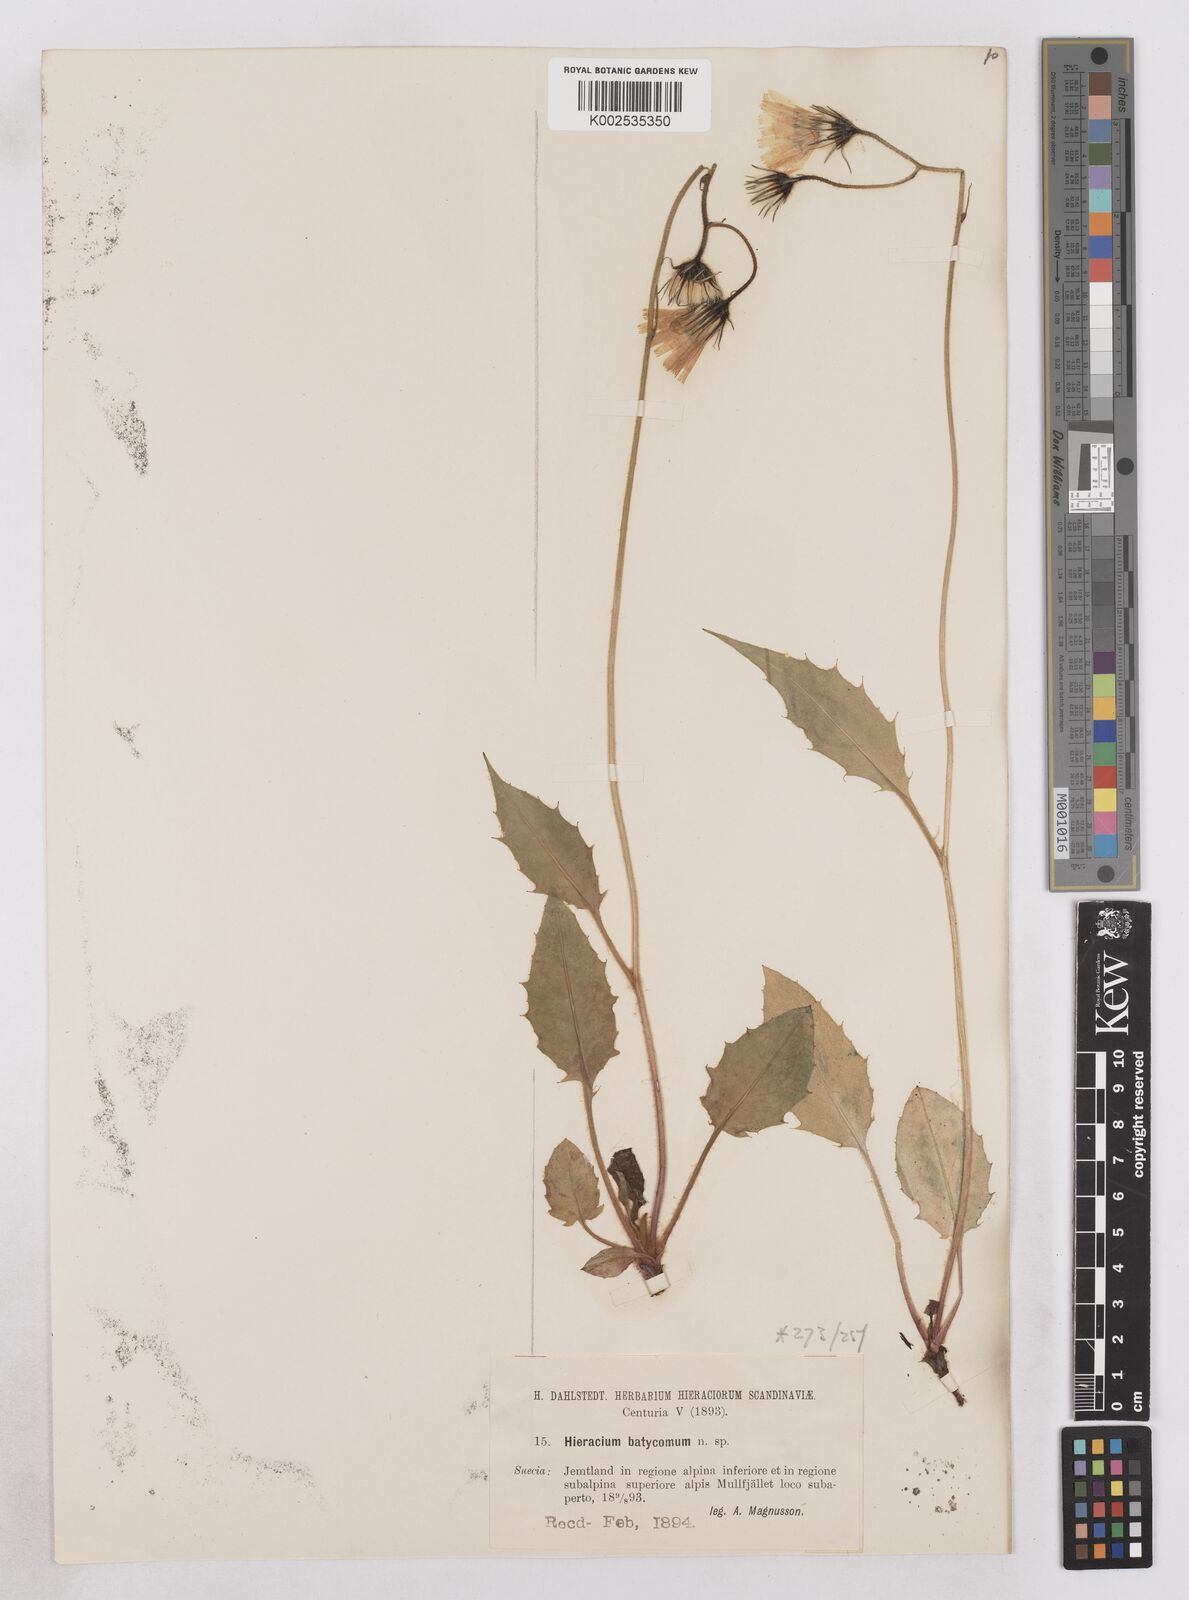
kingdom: Plantae
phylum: Tracheophyta
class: Magnoliopsida
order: Asterales
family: Asteraceae
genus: Hieracium
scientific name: Hieracium conspurcans
